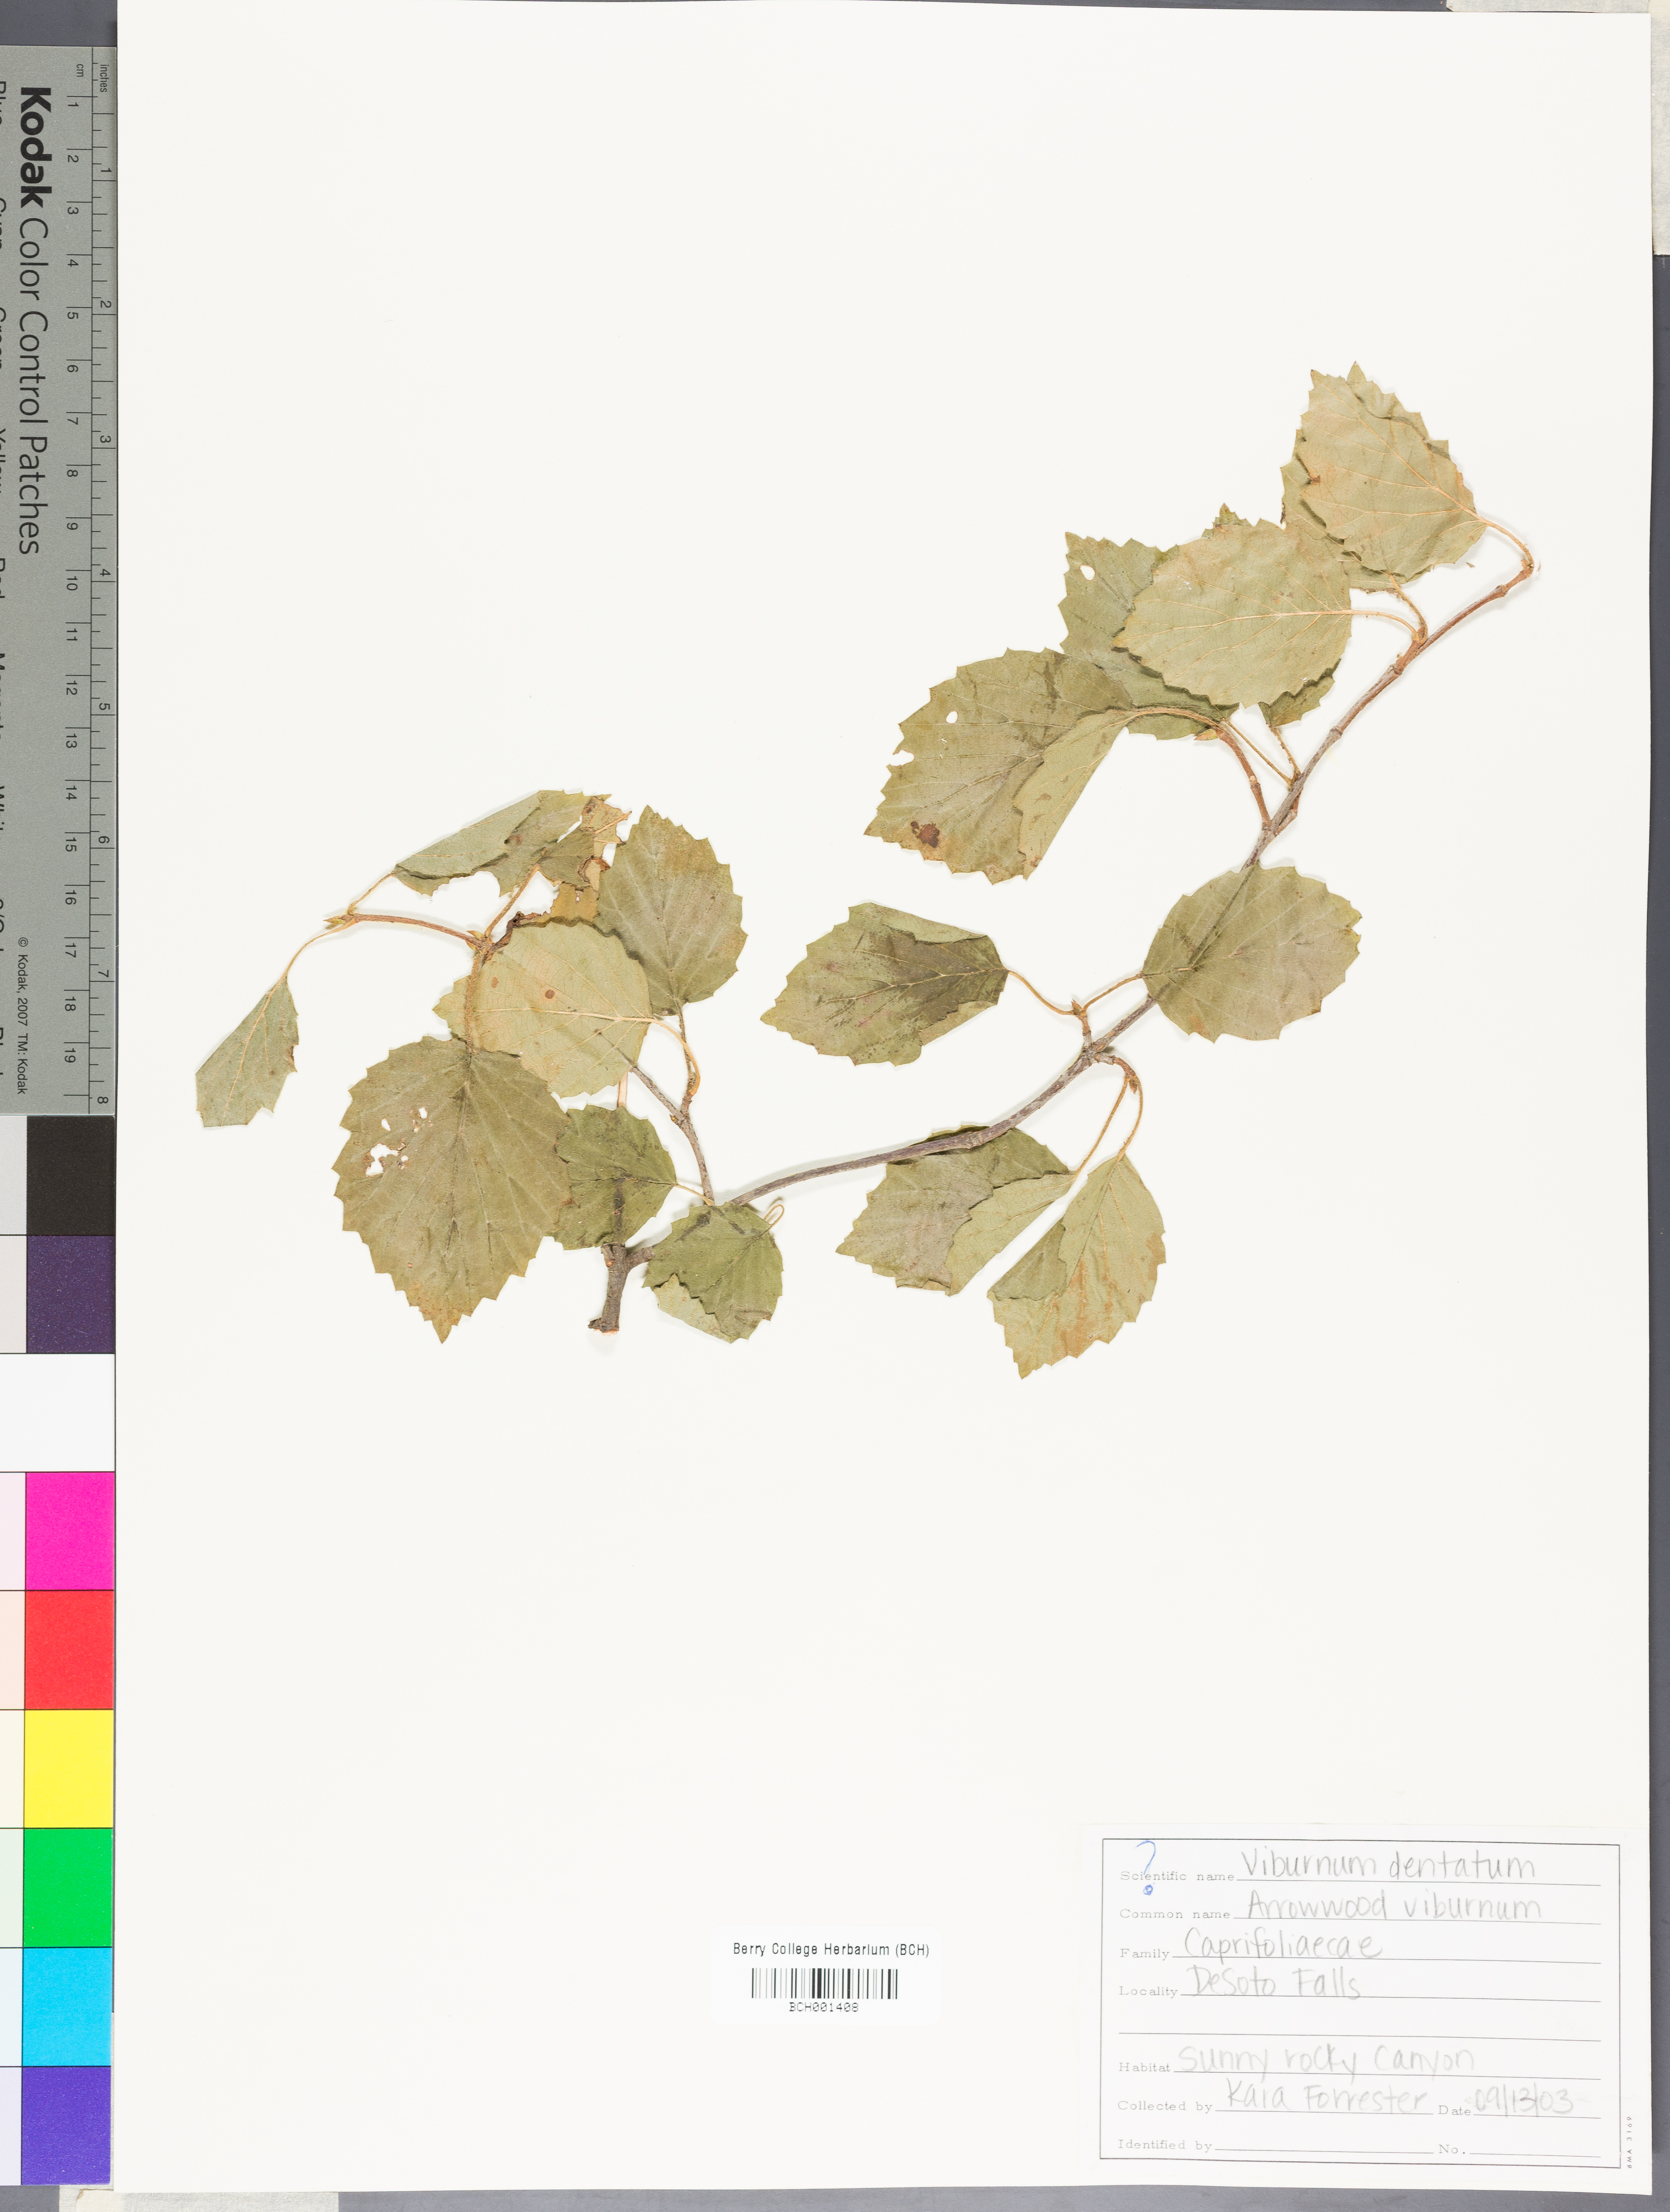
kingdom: Plantae
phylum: Tracheophyta
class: Magnoliopsida
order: Dipsacales
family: Viburnaceae
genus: Viburnum
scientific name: Viburnum dentatum
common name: Arrow-wood
